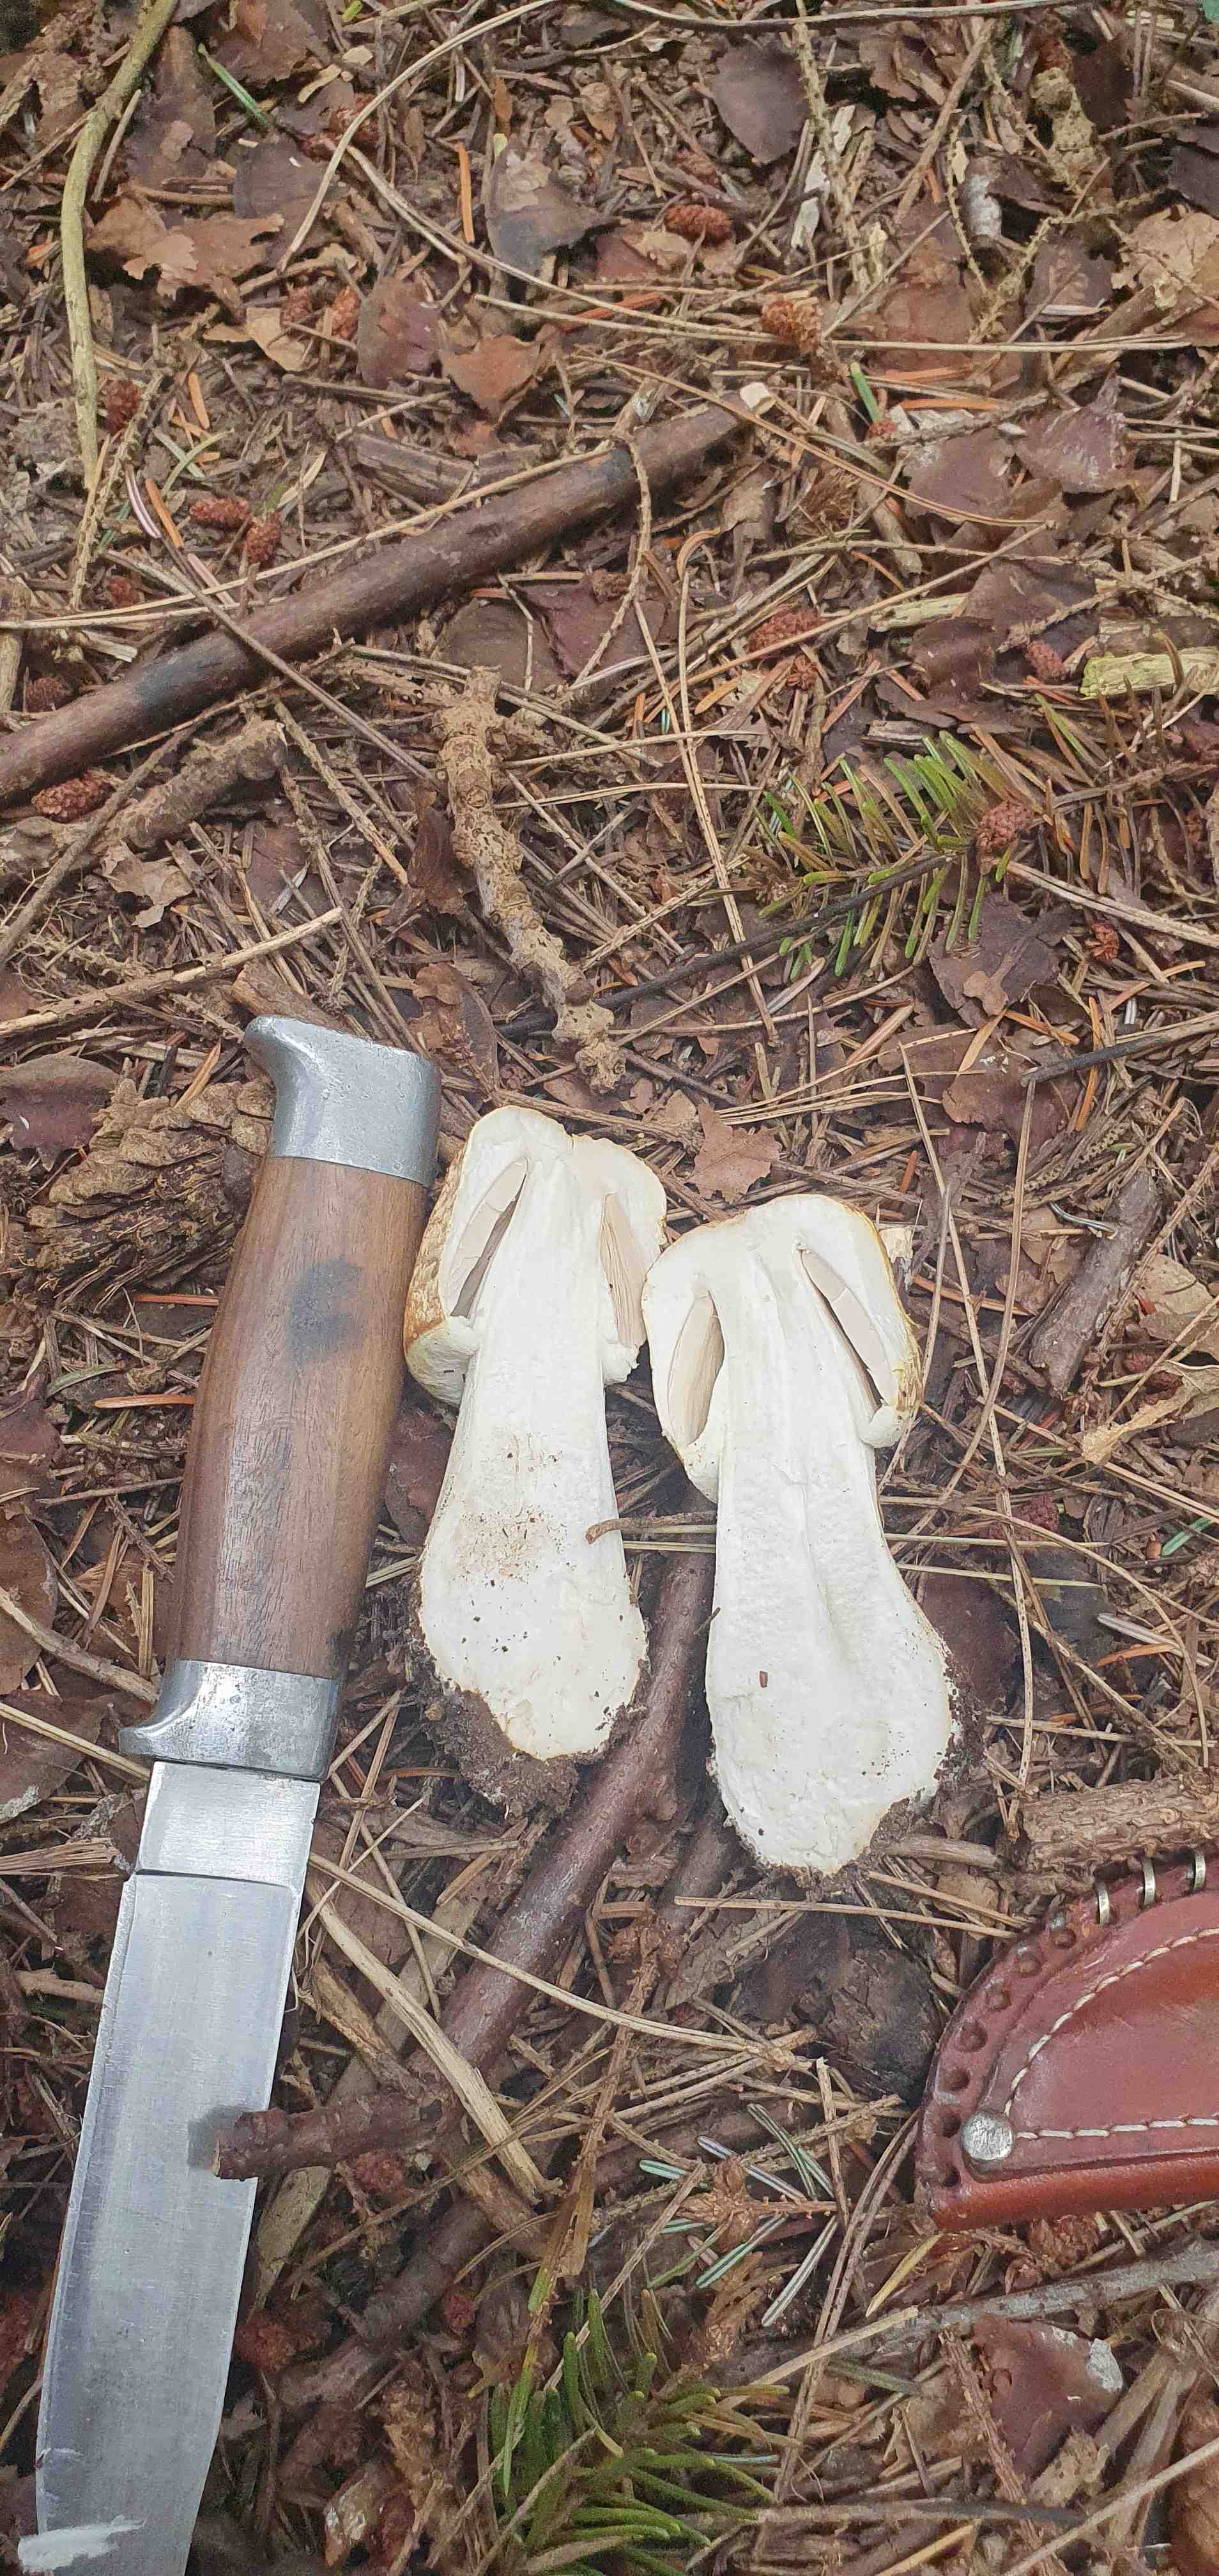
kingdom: Fungi
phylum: Basidiomycota
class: Agaricomycetes
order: Agaricales
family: Agaricaceae
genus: Agaricus
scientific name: Agaricus augustus
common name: prægtig champignon
